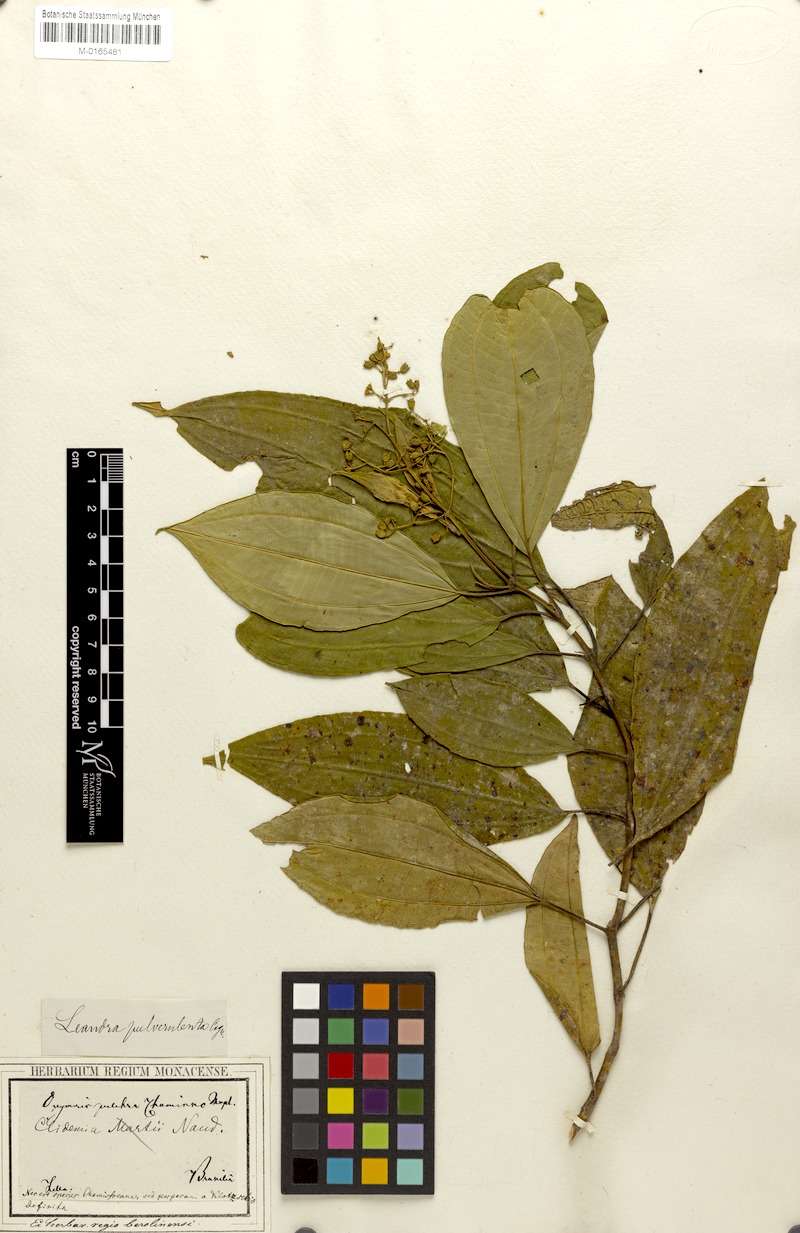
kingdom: Plantae
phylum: Tracheophyta
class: Magnoliopsida
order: Myrtales
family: Melastomataceae
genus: Miconia
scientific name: Miconia leagrayana
